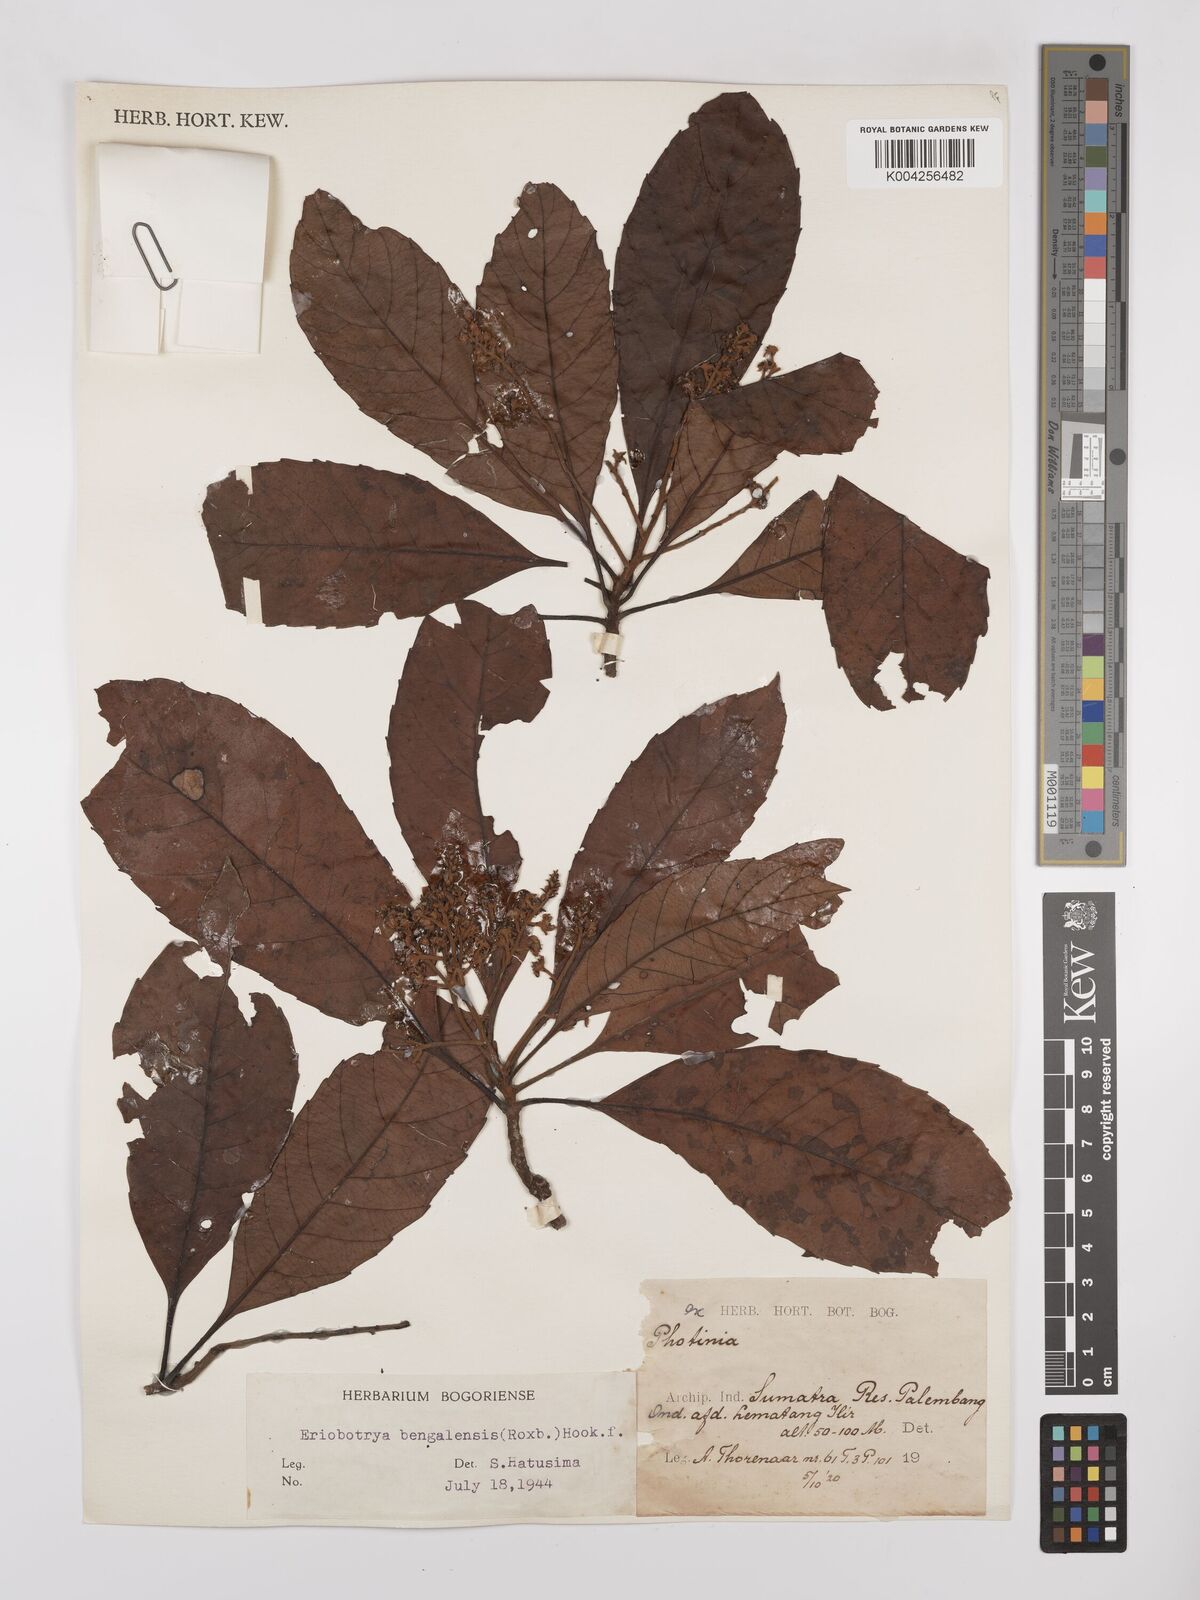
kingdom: Plantae
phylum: Tracheophyta
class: Magnoliopsida
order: Rosales
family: Rosaceae
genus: Rhaphiolepis
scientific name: Rhaphiolepis bengalensis
